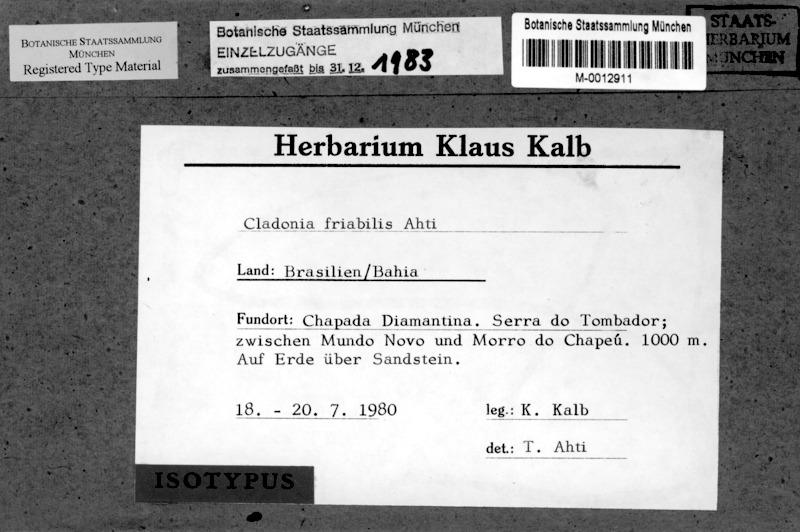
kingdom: Fungi
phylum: Ascomycota
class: Lecanoromycetes
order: Lecanorales
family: Cladoniaceae
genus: Cladonia
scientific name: Cladonia friabilis
